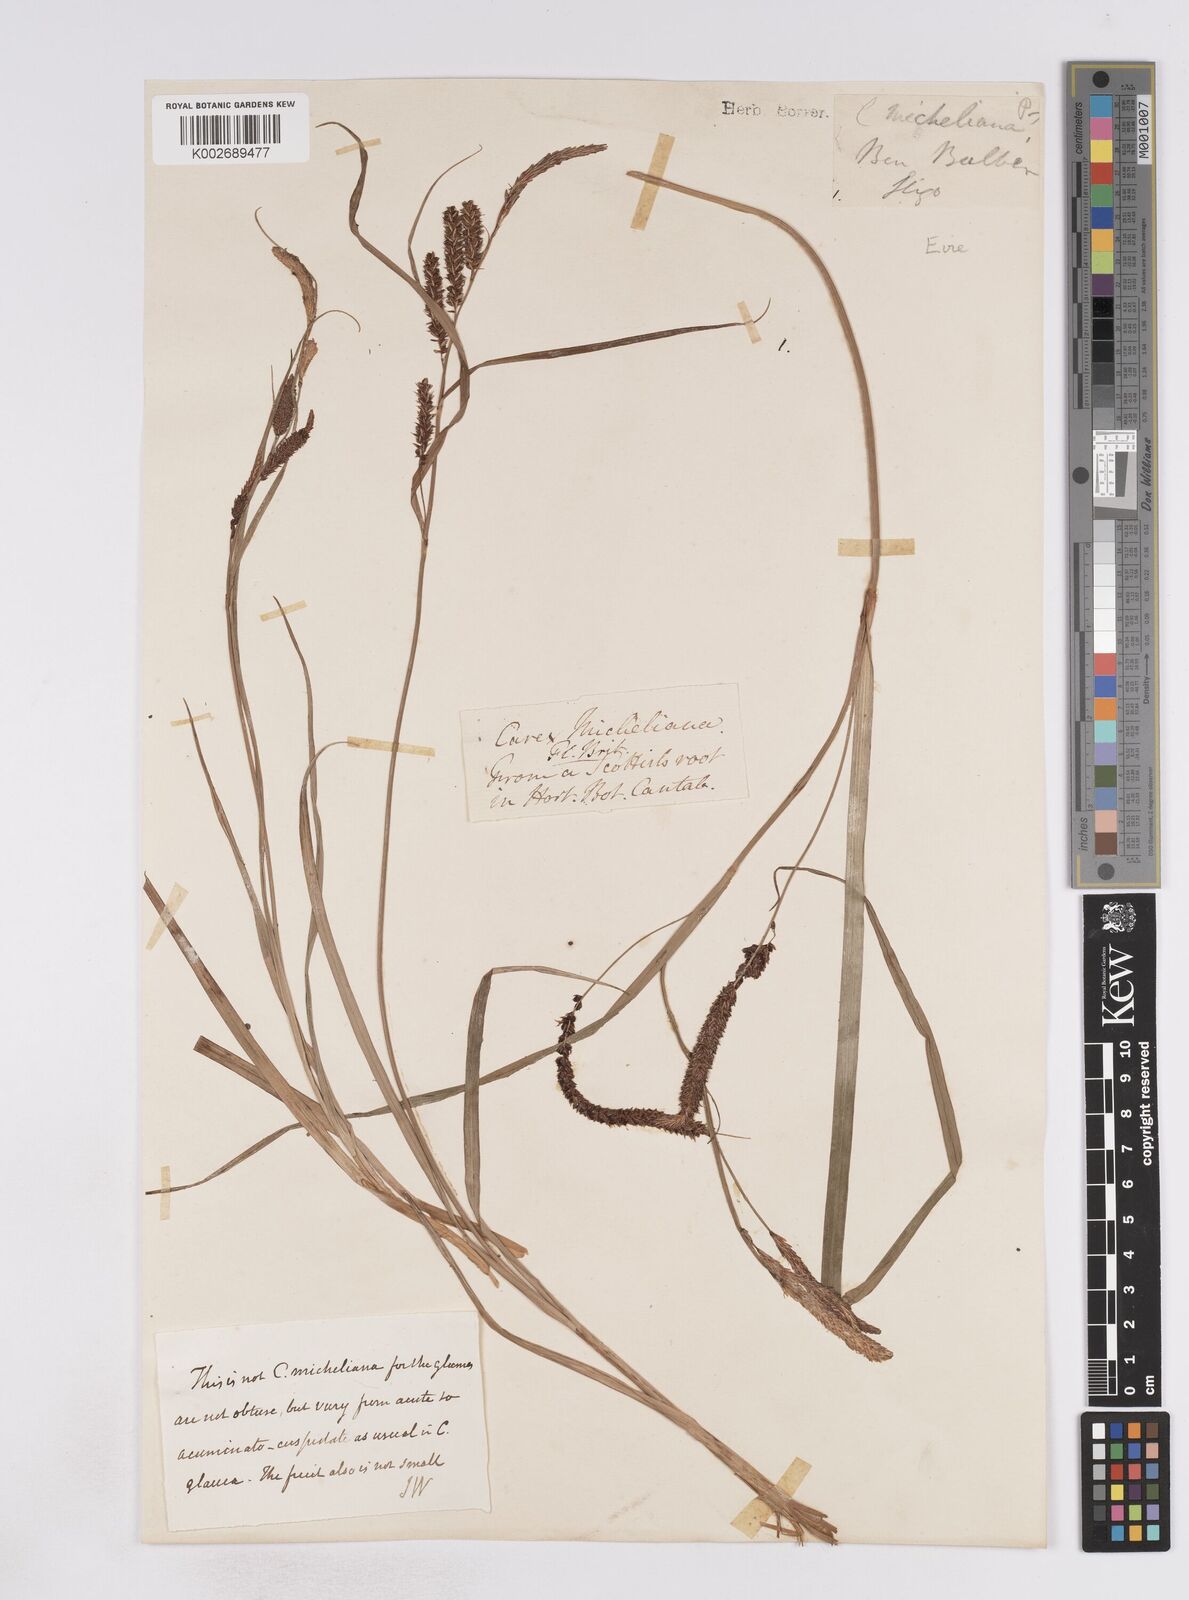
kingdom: Plantae
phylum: Tracheophyta
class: Liliopsida
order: Poales
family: Cyperaceae
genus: Carex
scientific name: Carex flacca
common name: Glaucous sedge
